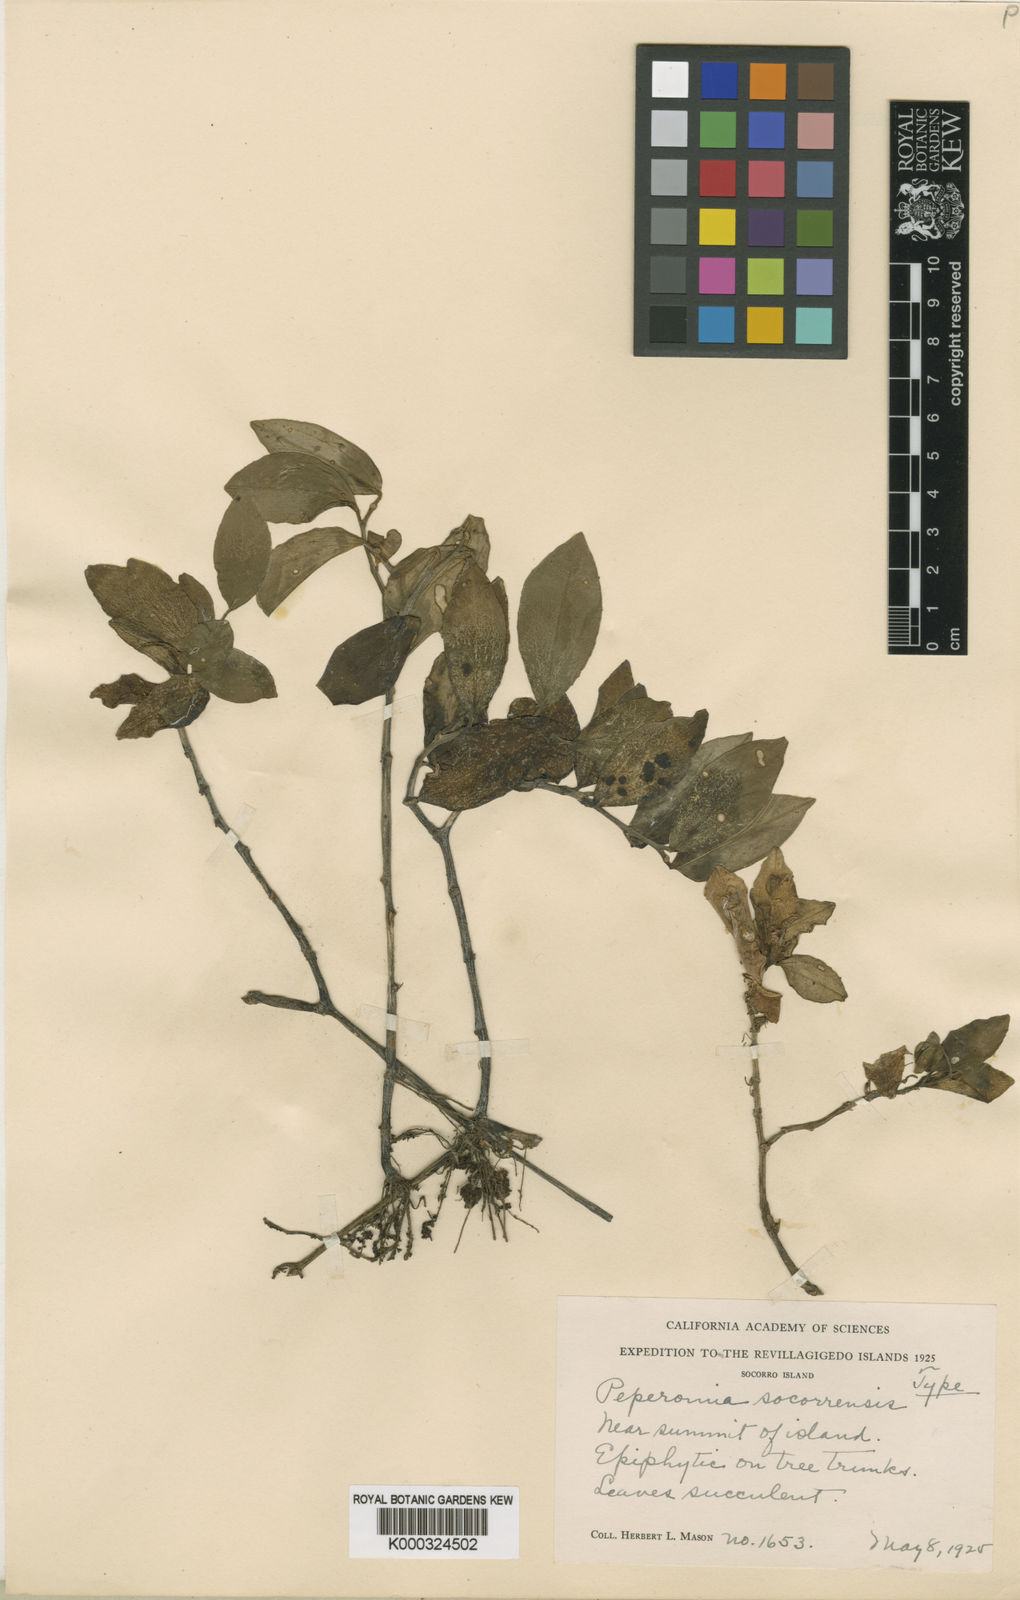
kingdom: Plantae
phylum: Tracheophyta
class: Magnoliopsida
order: Piperales
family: Piperaceae
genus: Peperomia
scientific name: Peperomia san-joseana
